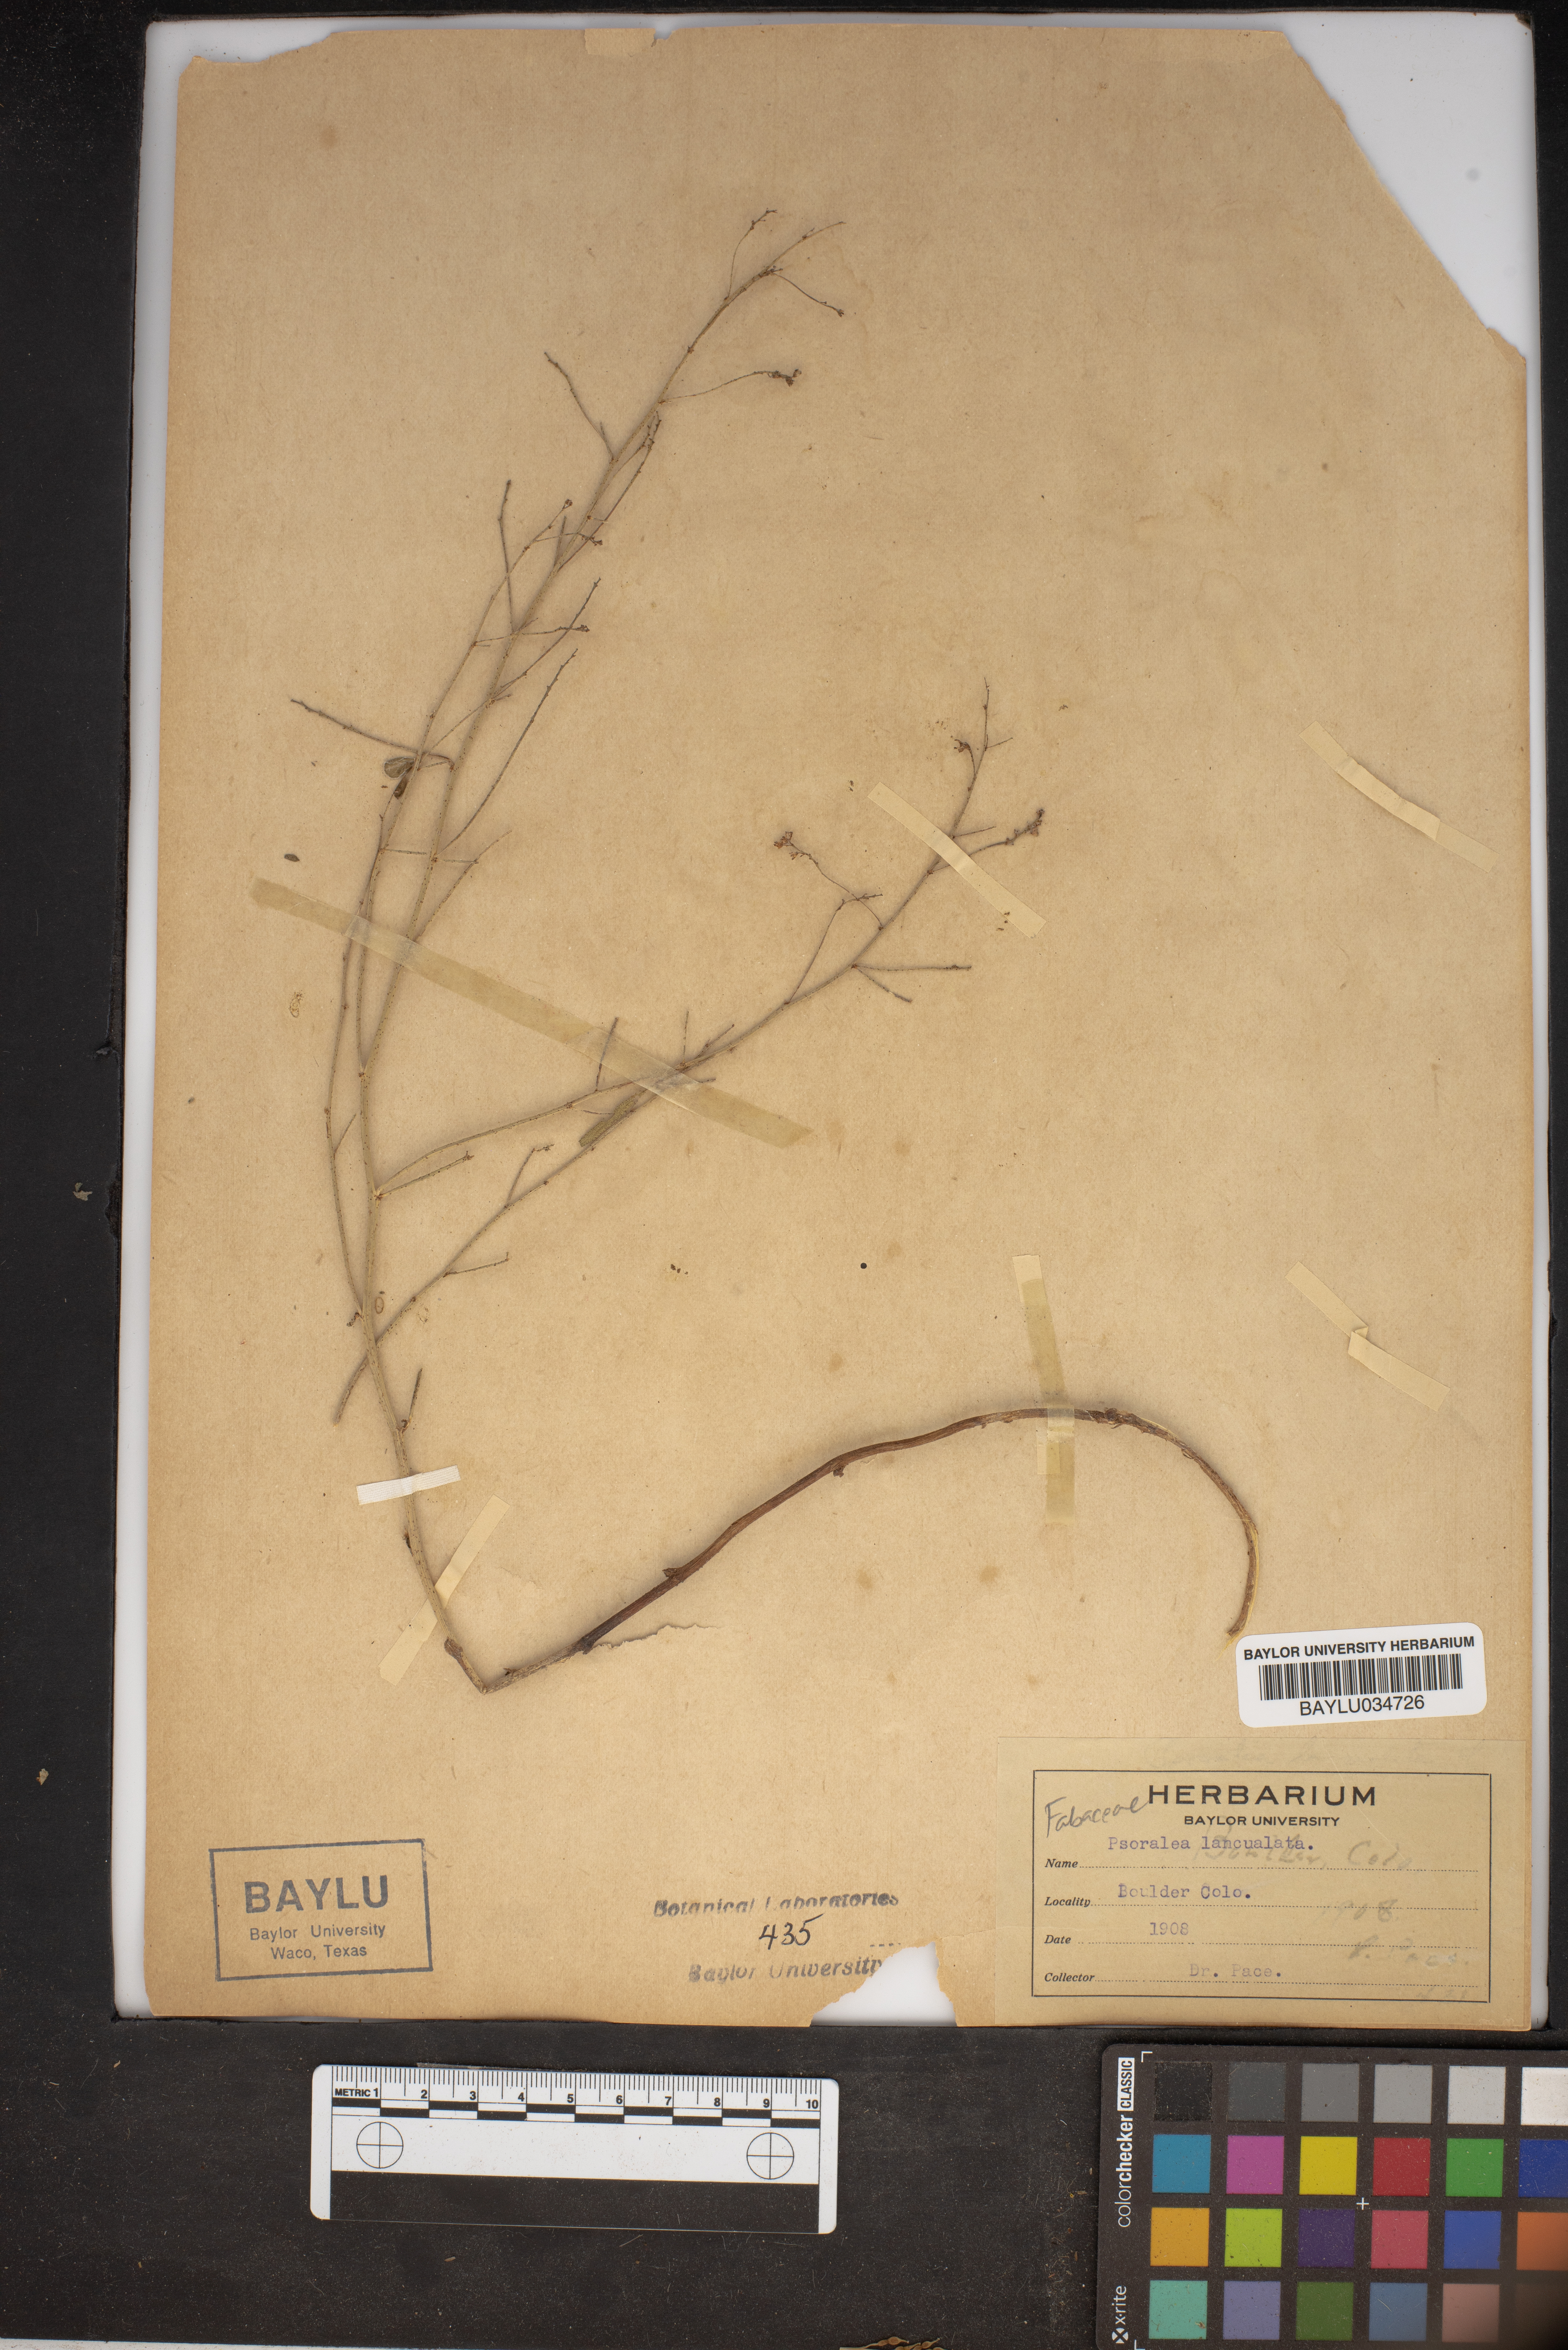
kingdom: Plantae
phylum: Tracheophyta
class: Magnoliopsida
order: Fabales
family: Fabaceae
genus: Ladeania
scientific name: Ladeania lanceolata
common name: Dune scurf-pea
